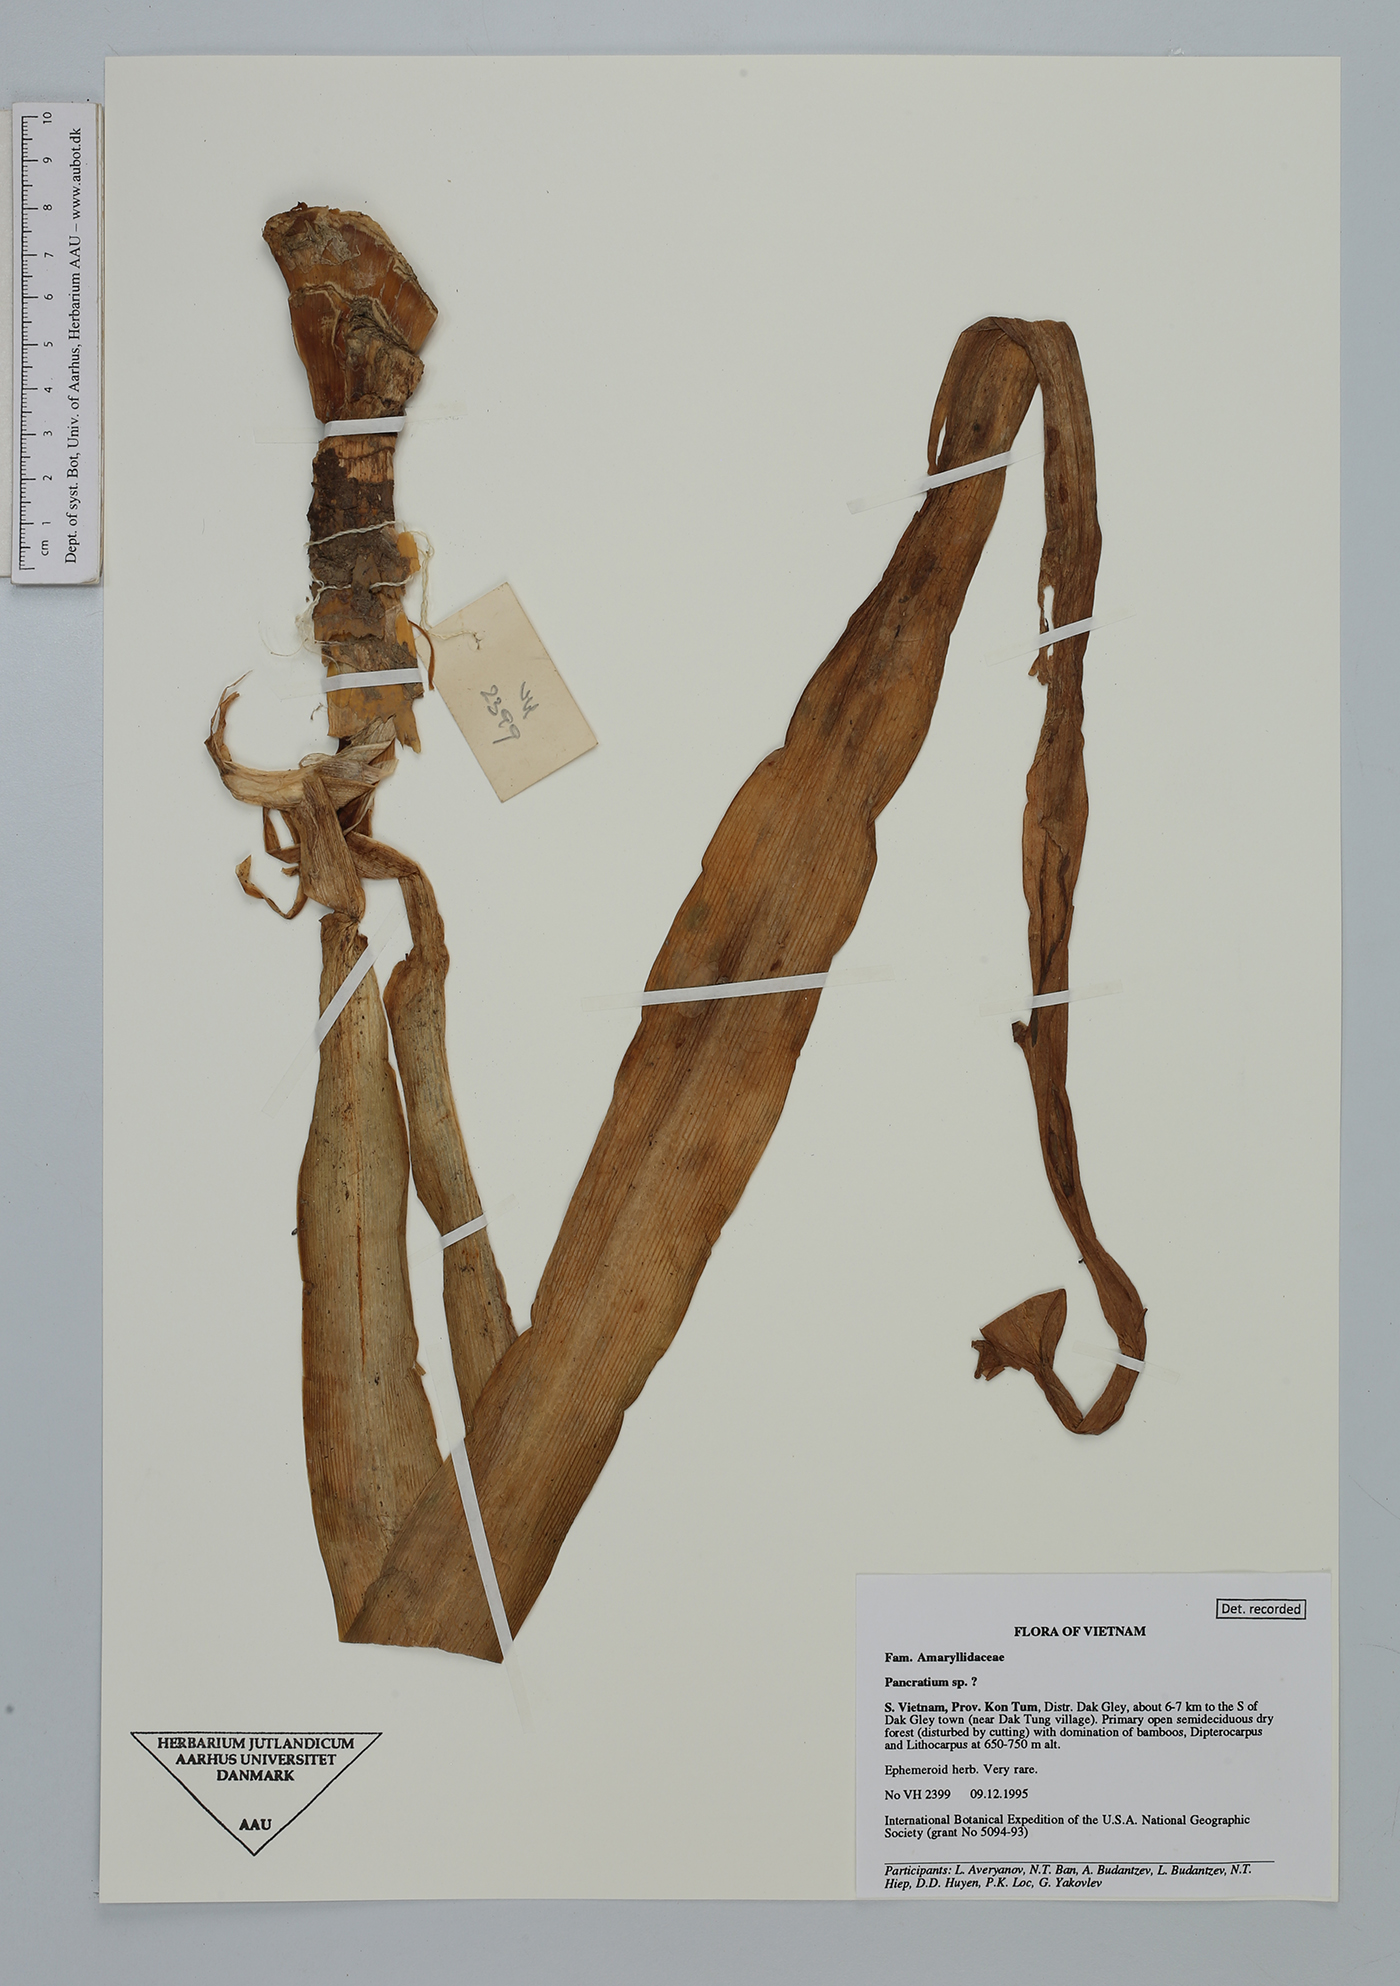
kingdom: Plantae
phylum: Tracheophyta
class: Liliopsida
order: Asparagales
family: Amaryllidaceae
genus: Pancratium
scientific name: Pancratium
